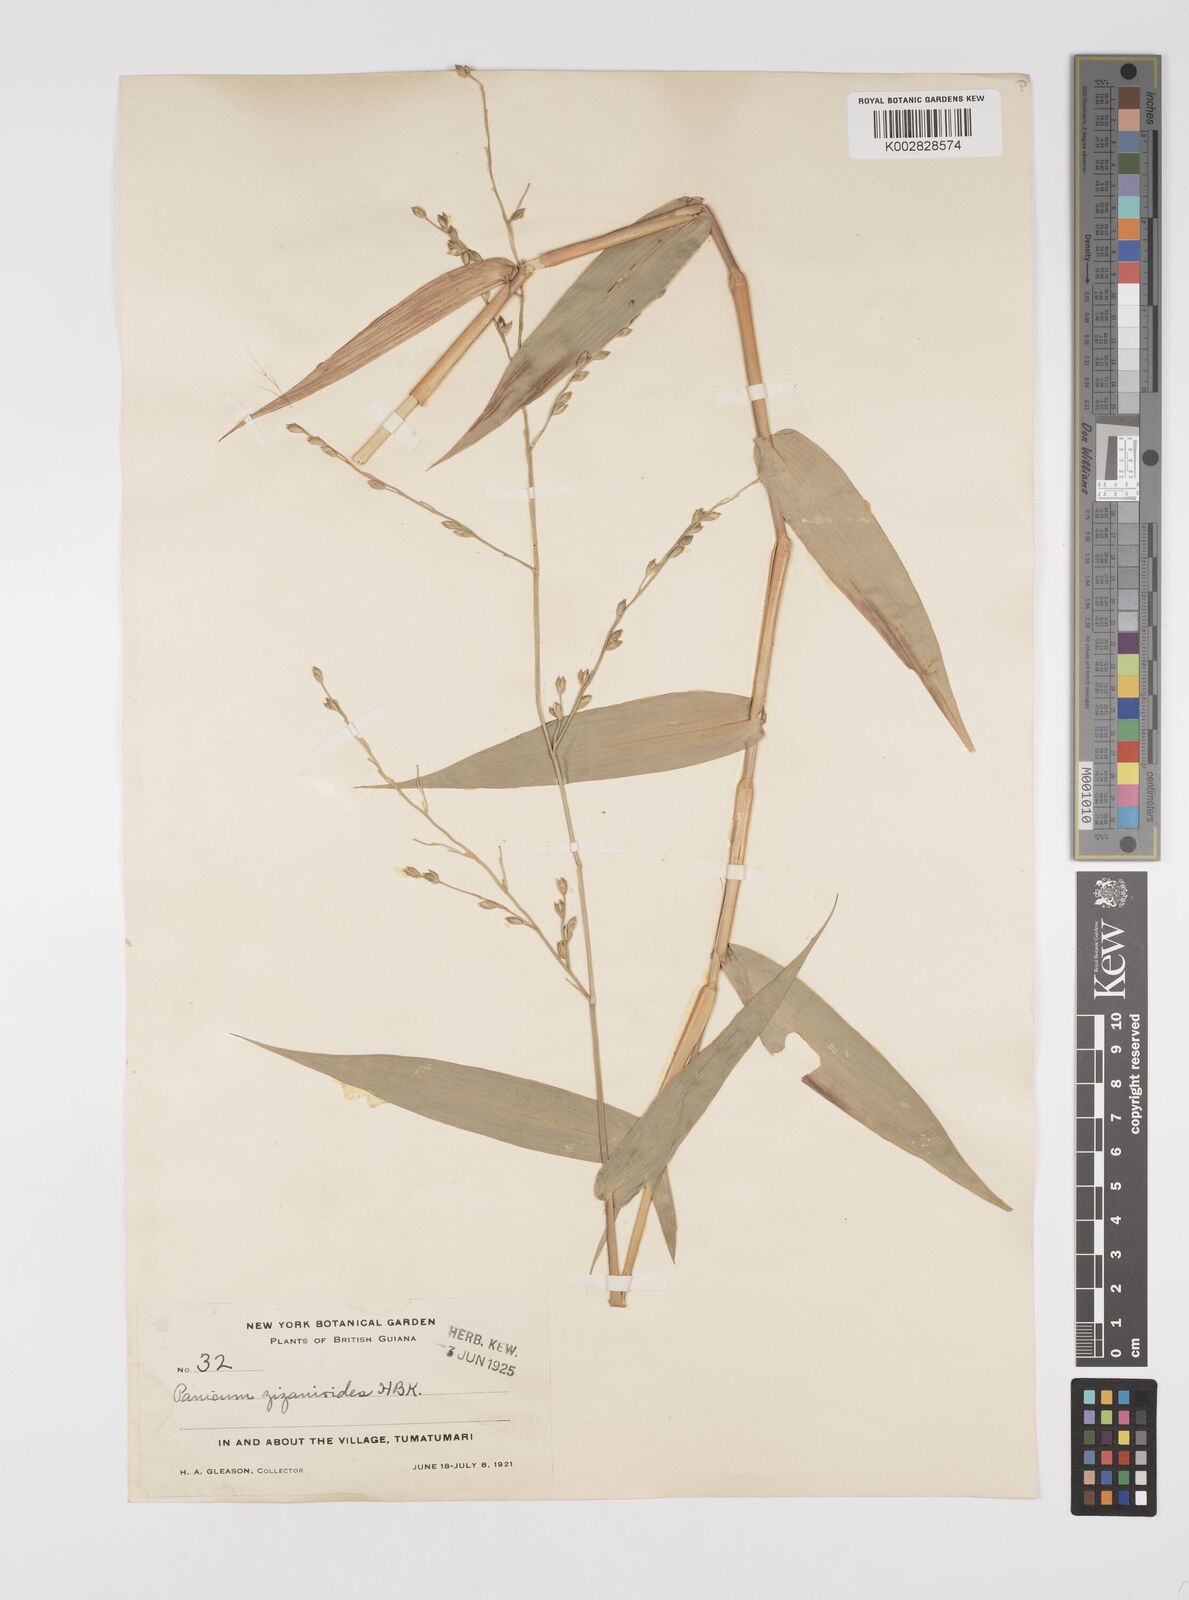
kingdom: Plantae
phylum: Tracheophyta
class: Liliopsida
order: Poales
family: Poaceae
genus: Acroceras
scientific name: Acroceras zizanioides
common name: Oat grass
